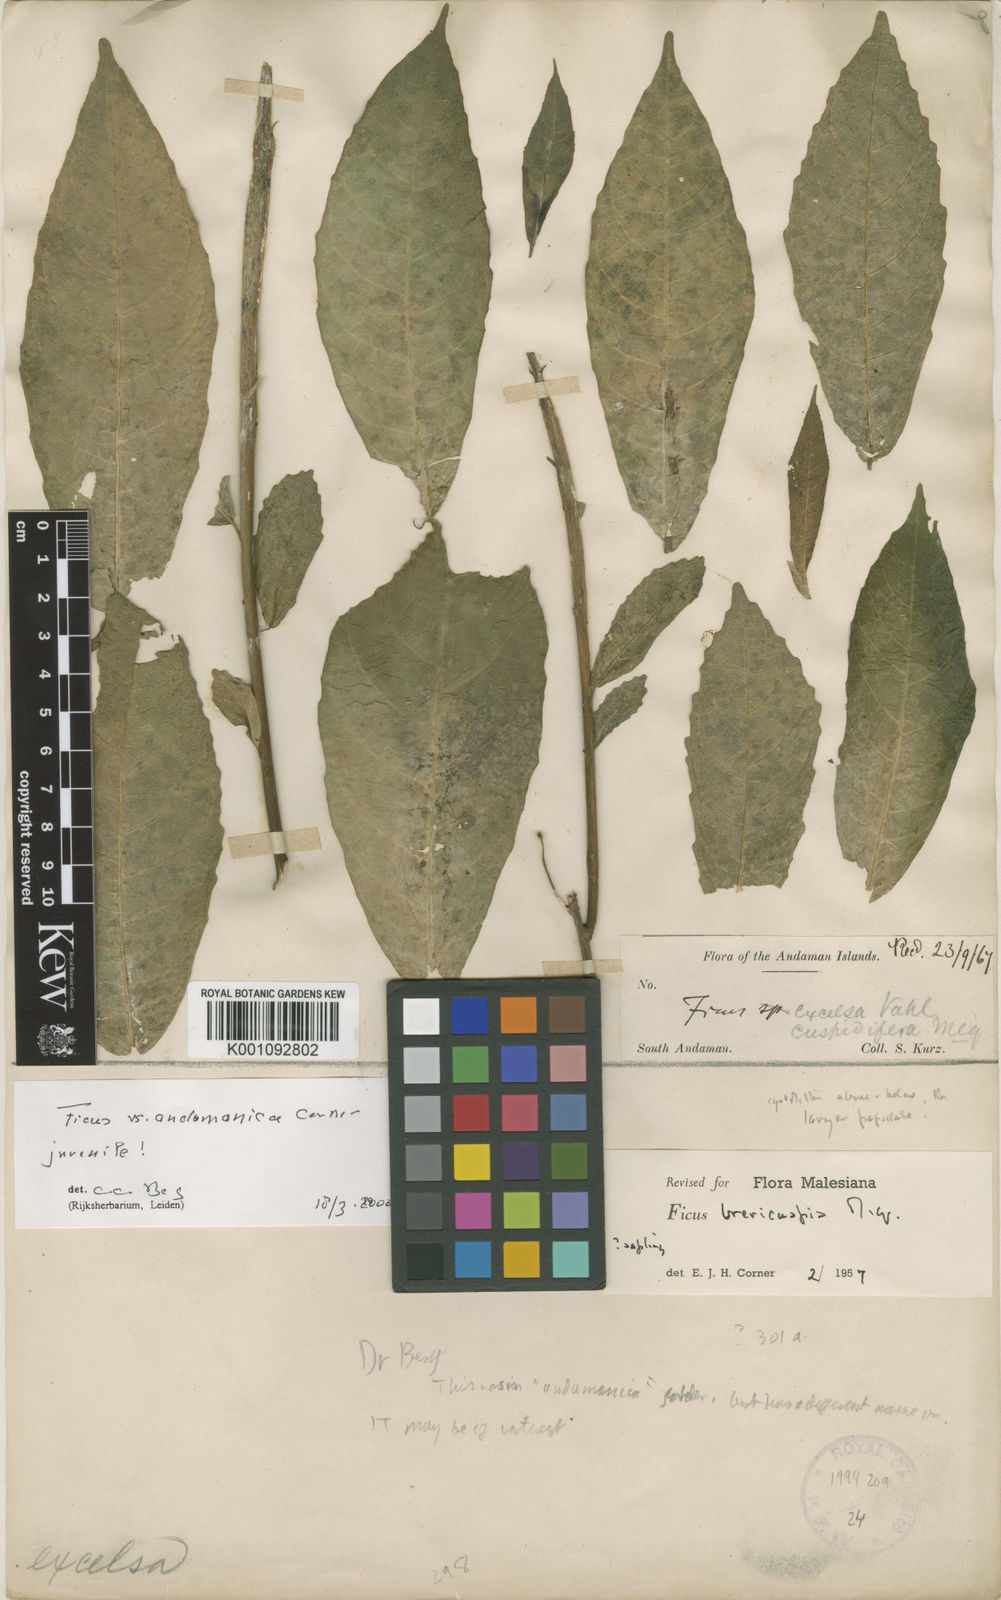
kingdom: Plantae
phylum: Tracheophyta
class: Magnoliopsida
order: Rosales
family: Moraceae
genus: Ficus
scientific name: Ficus andamanica
